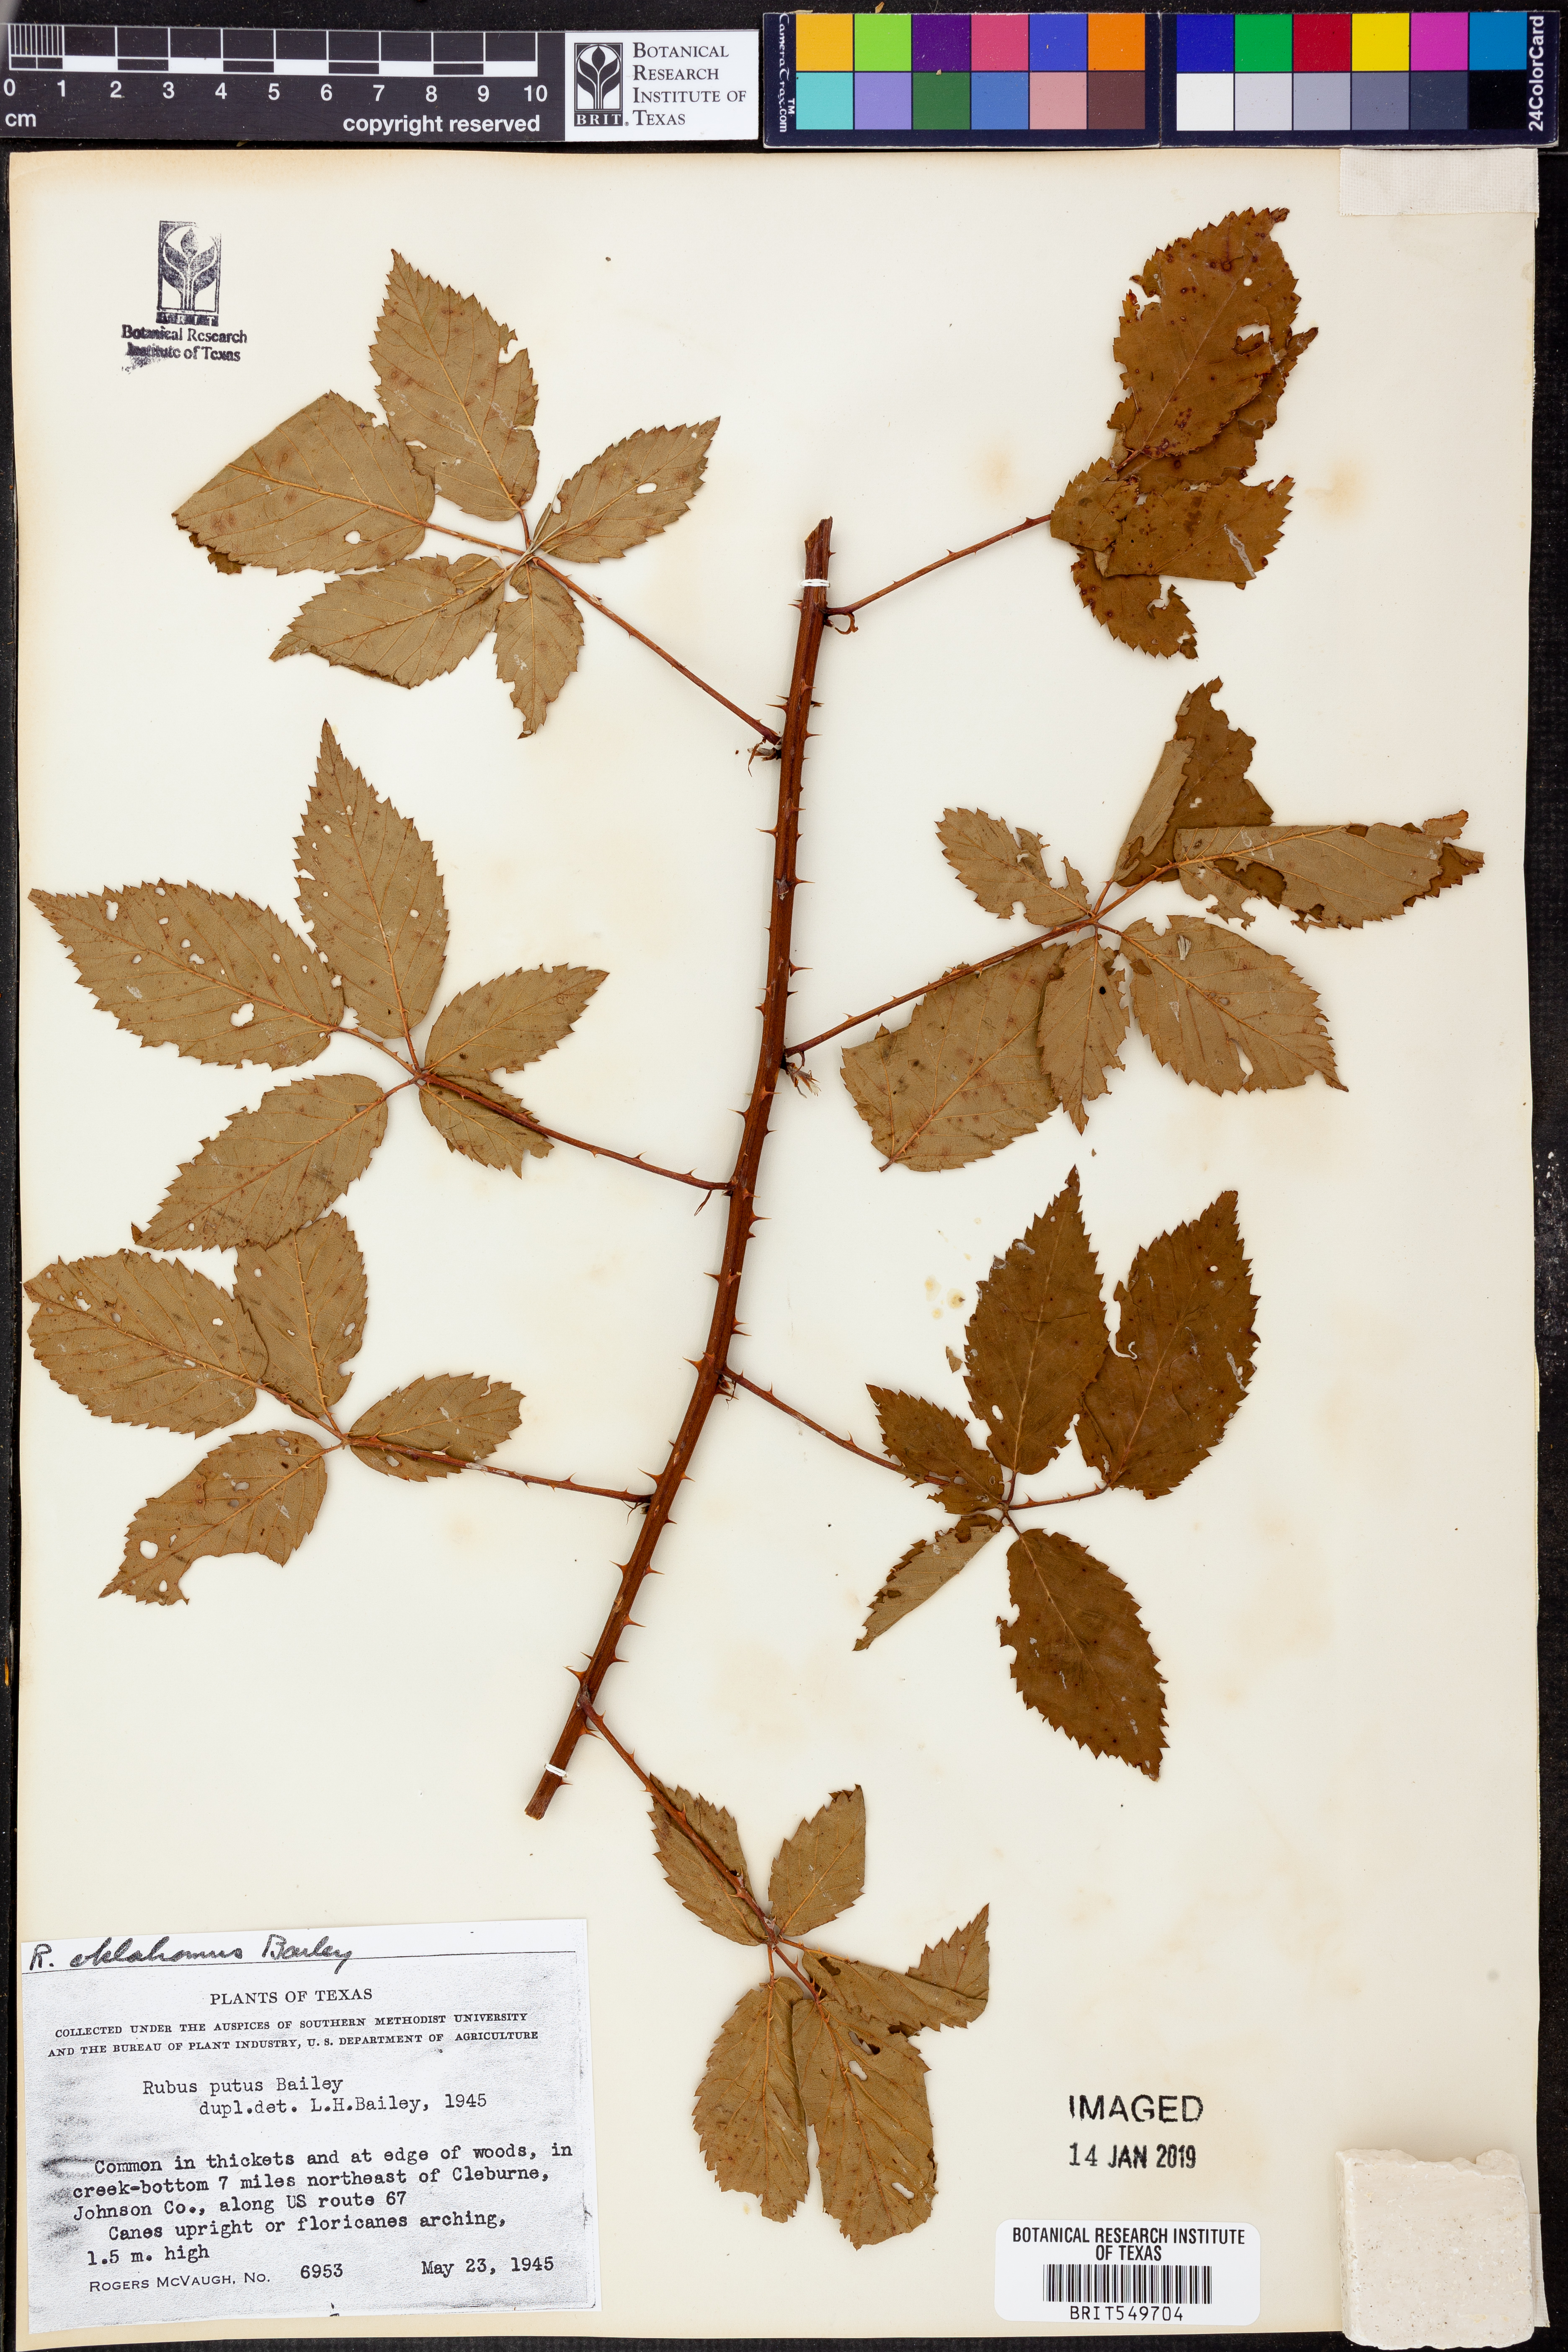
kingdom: Plantae
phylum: Tracheophyta
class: Magnoliopsida
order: Rosales
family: Rosaceae
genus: Rubus
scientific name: Rubus oklahomus
